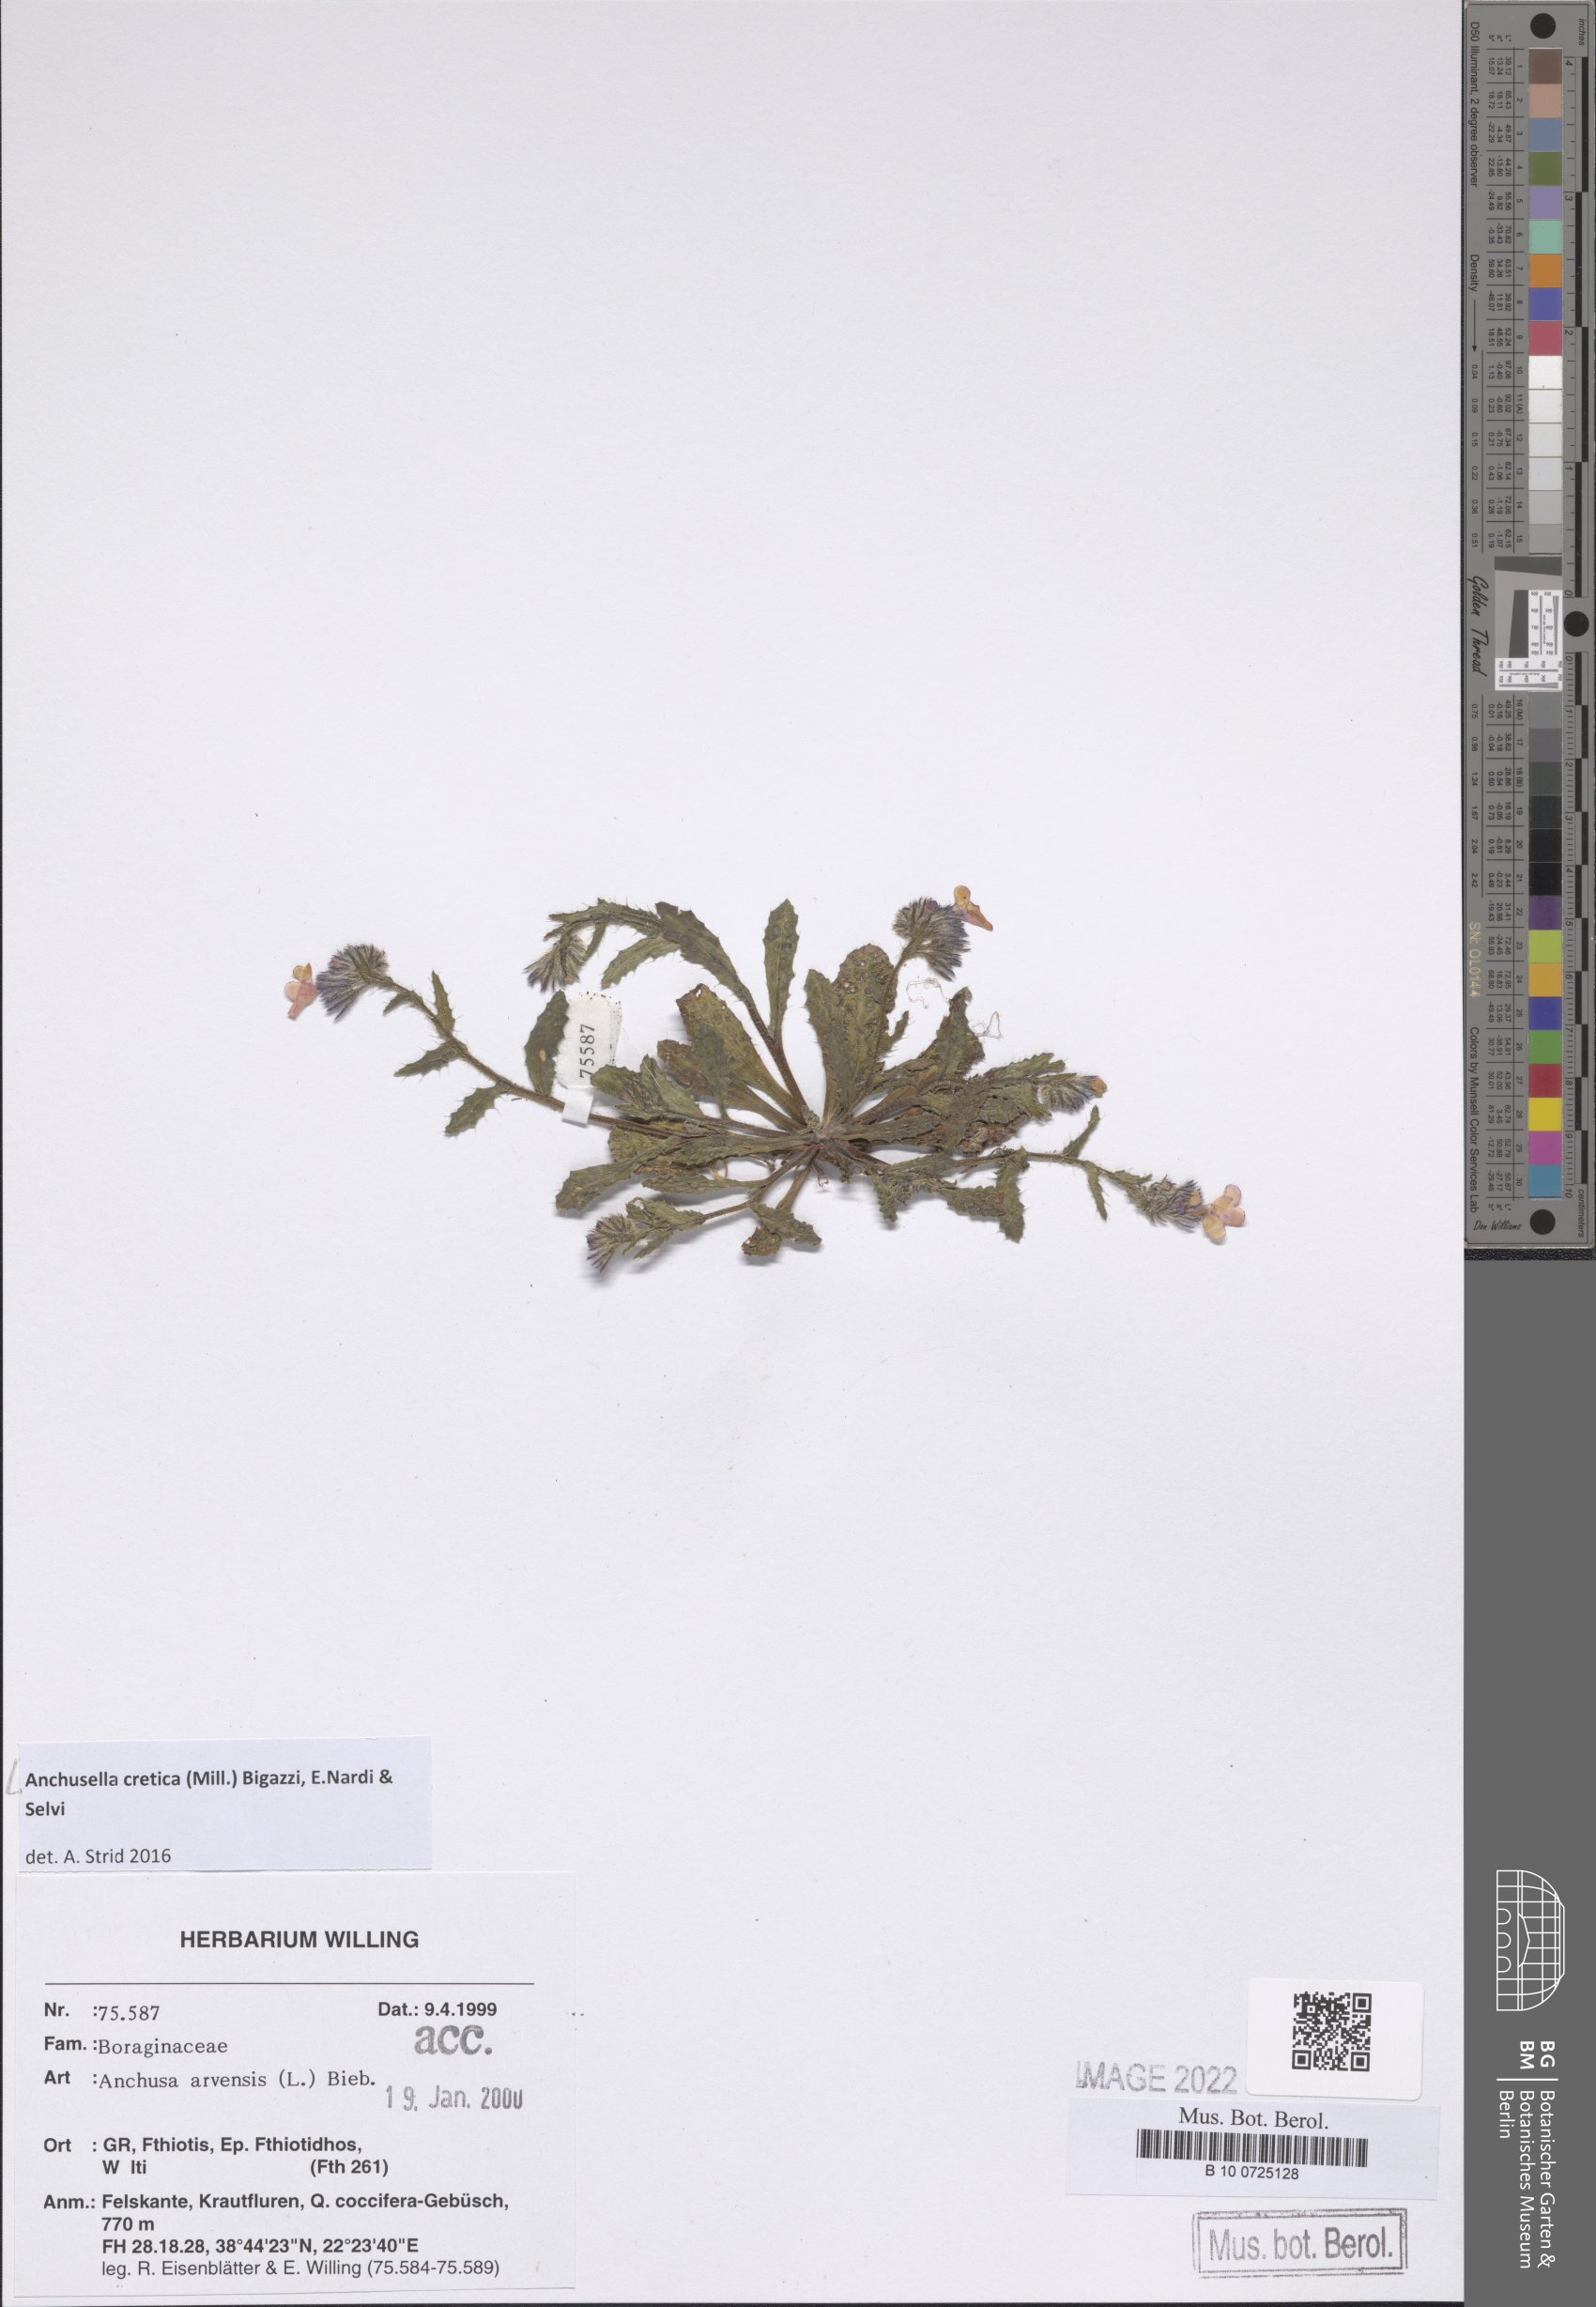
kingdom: Plantae
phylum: Tracheophyta
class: Magnoliopsida
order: Boraginales
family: Boraginaceae
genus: Anchusella
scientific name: Anchusella cretica
